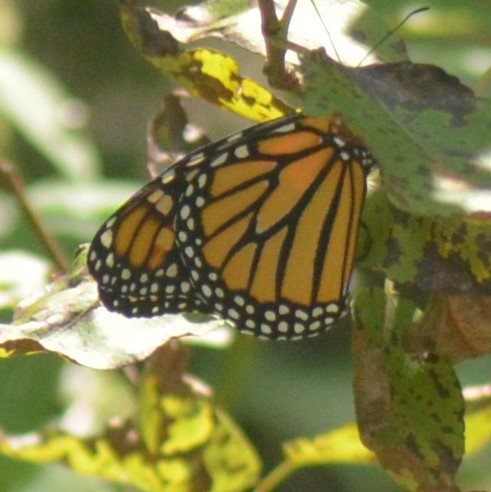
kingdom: Animalia
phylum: Arthropoda
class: Insecta
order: Lepidoptera
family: Nymphalidae
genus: Danaus
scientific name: Danaus plexippus
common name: Monarch
